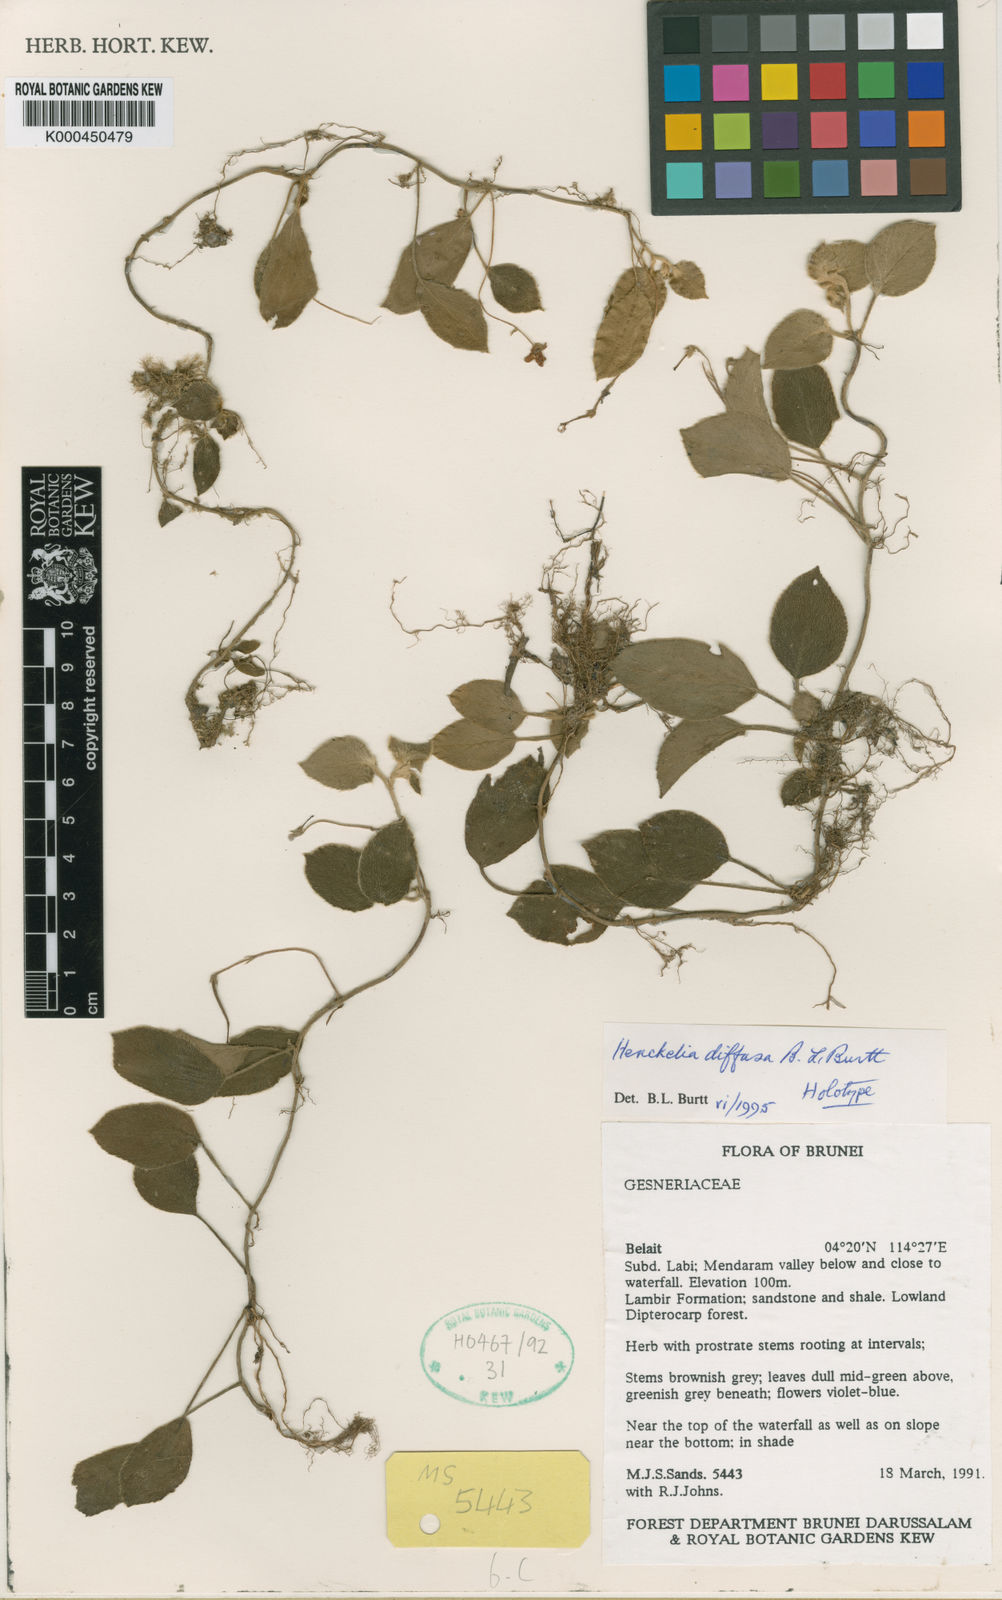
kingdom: Plantae
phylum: Tracheophyta
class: Magnoliopsida
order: Lamiales
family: Gesneriaceae
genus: Henckelia
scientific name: Henckelia diffusa
